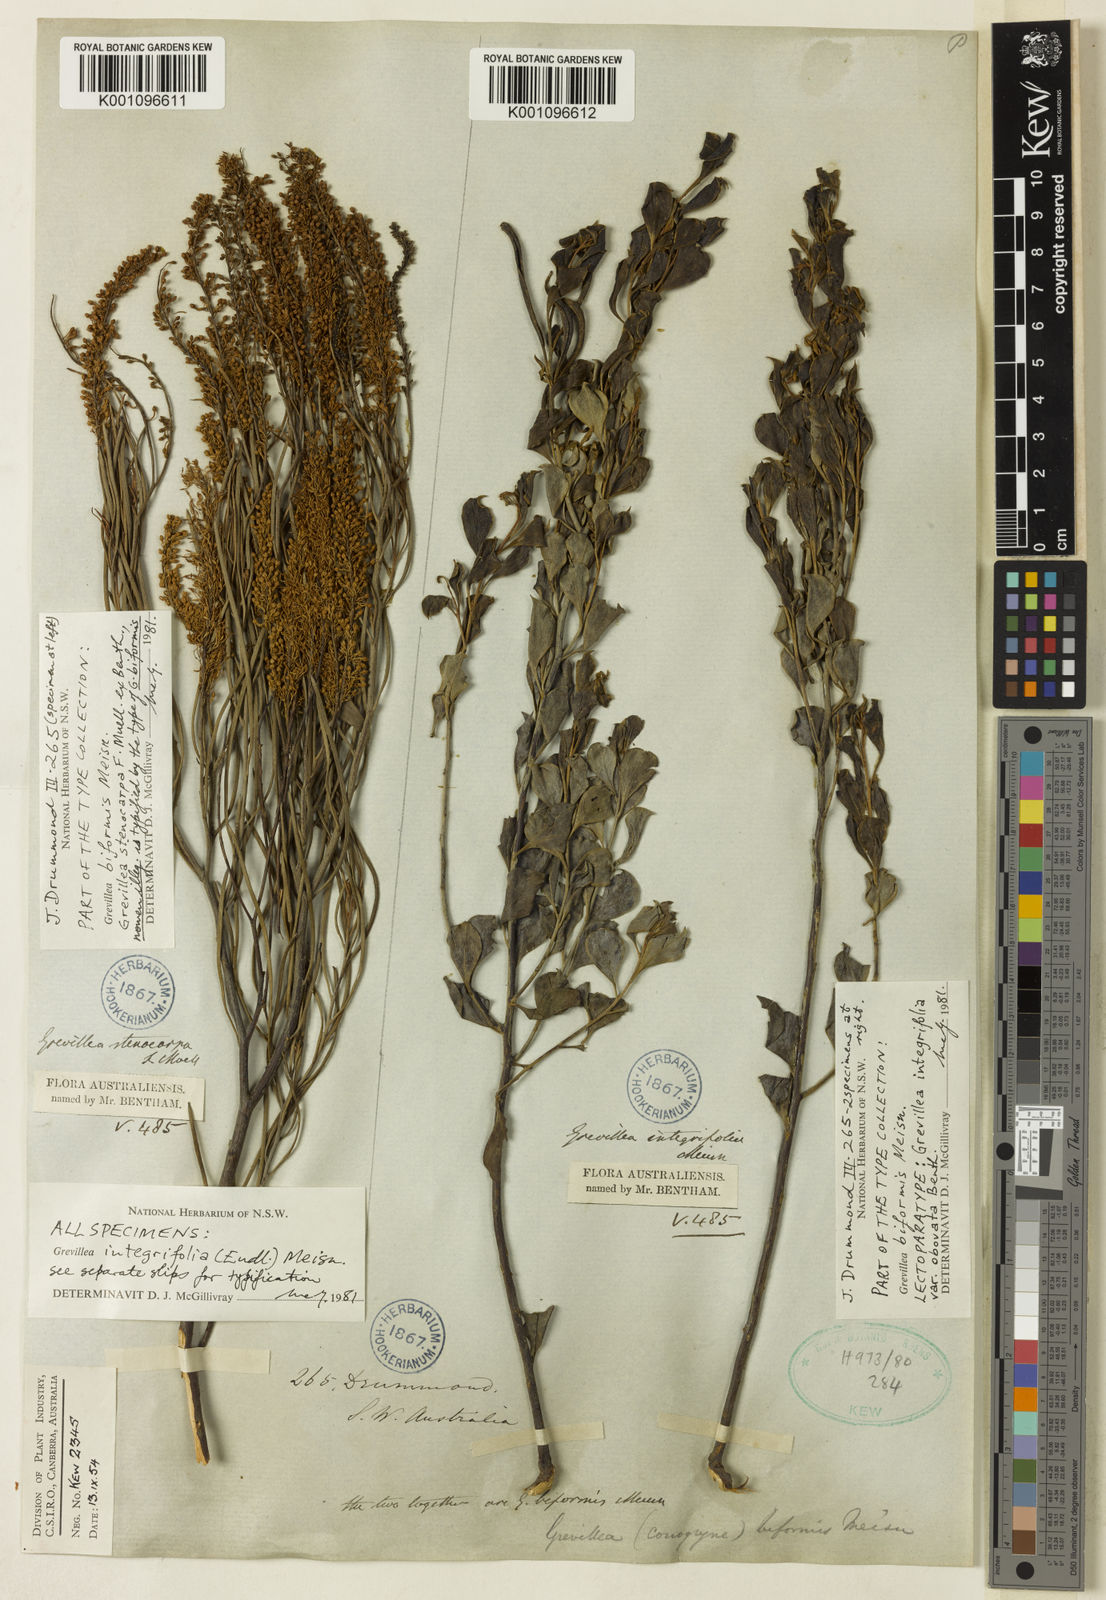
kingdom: Plantae
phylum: Tracheophyta
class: Magnoliopsida
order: Proteales
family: Proteaceae
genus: Grevillea
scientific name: Grevillea biformis
